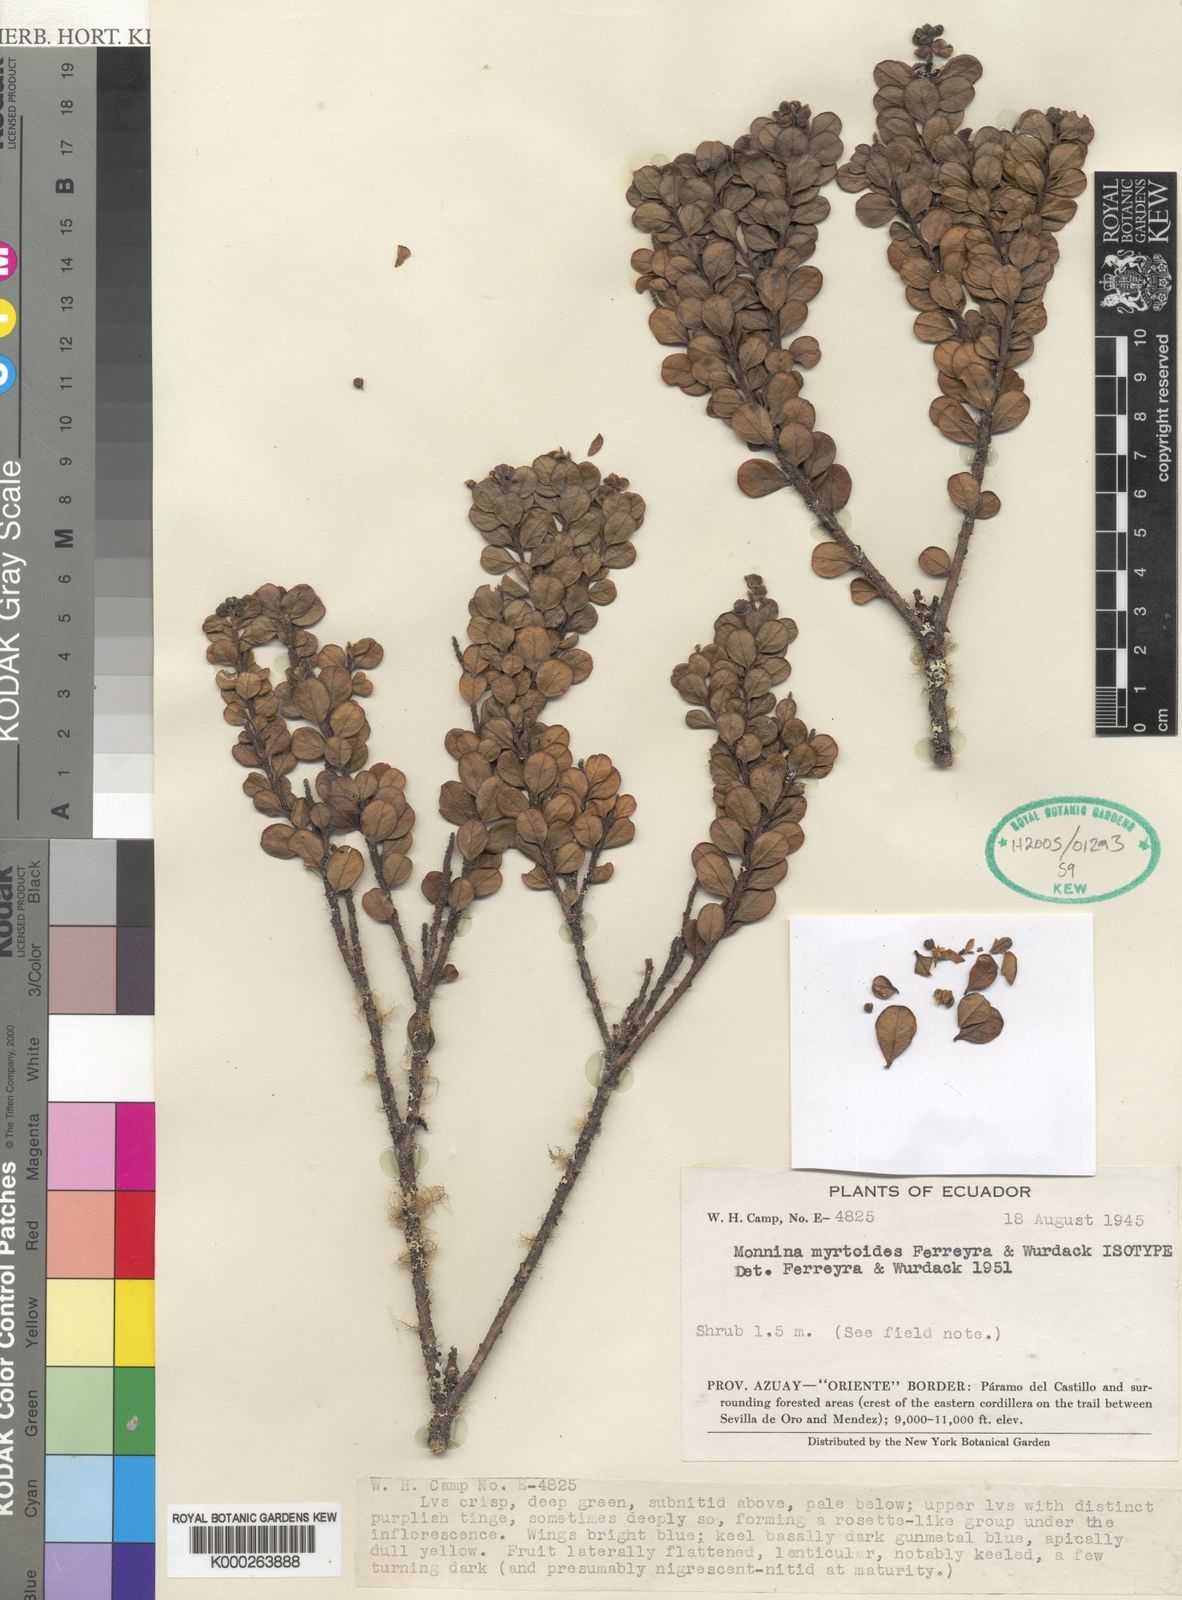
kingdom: Plantae
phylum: Tracheophyta
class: Magnoliopsida
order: Fabales
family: Polygalaceae
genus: Monnina
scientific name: Monnina arbuscula
